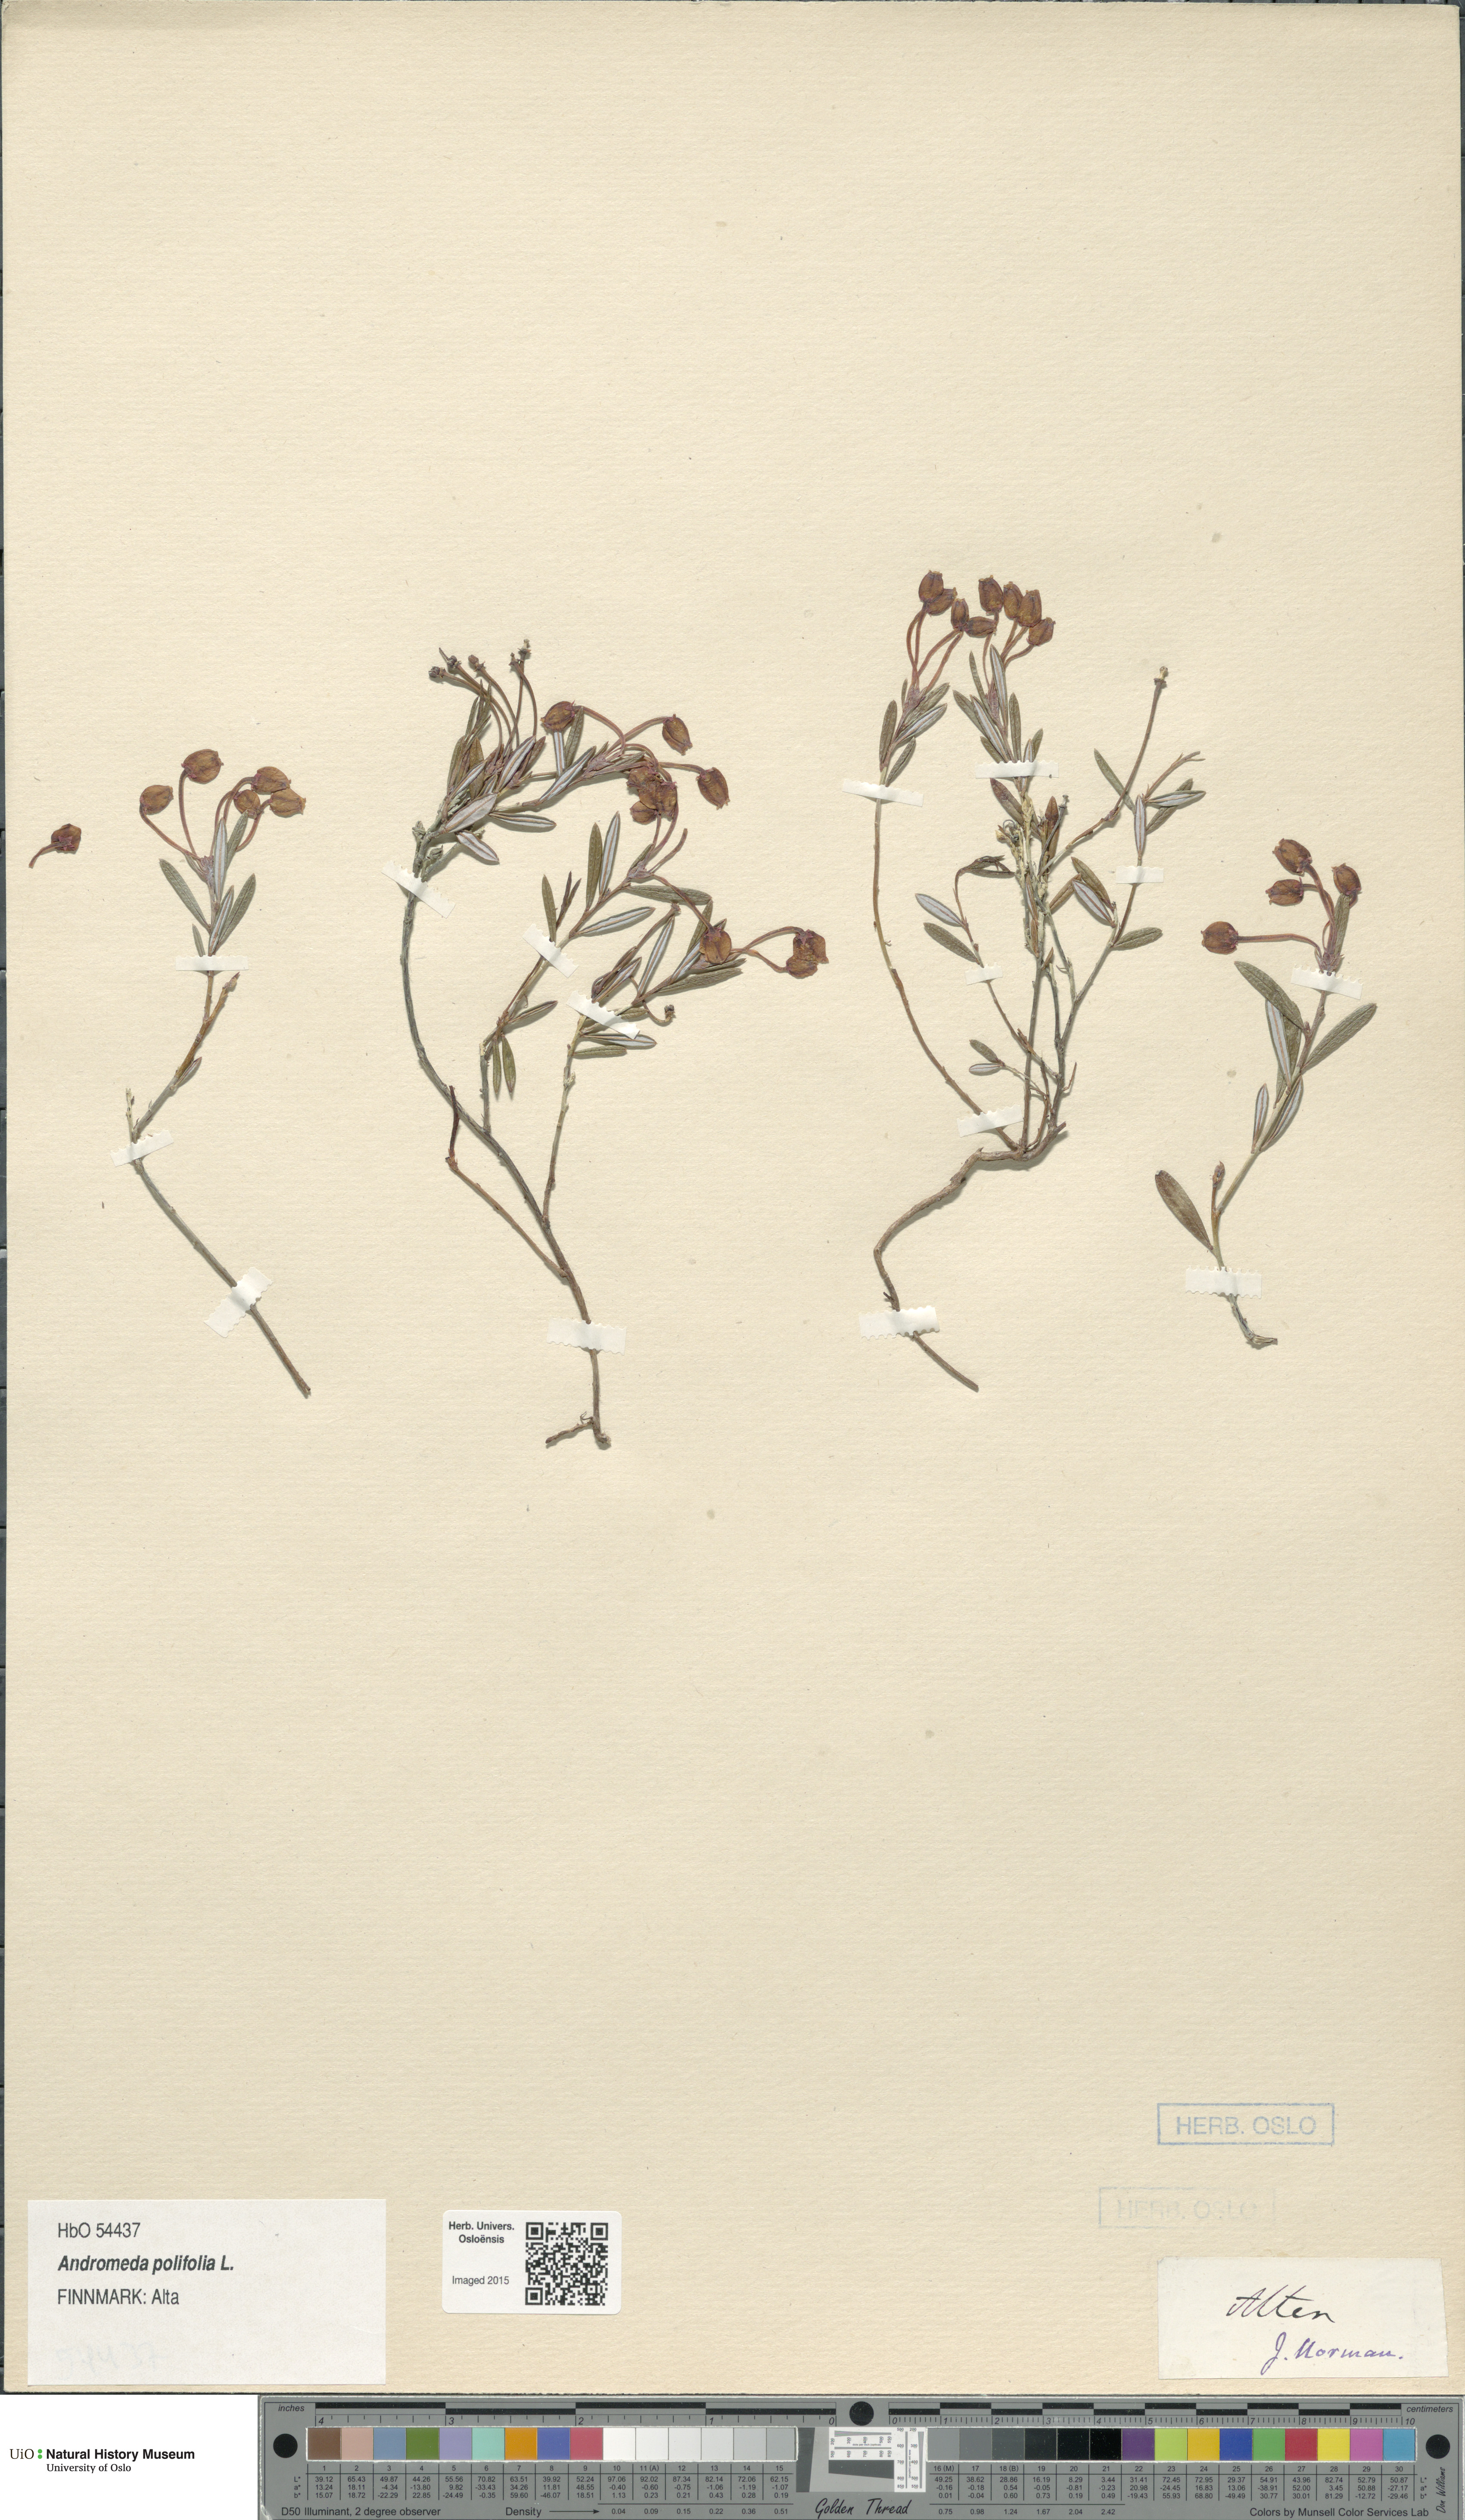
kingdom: Plantae
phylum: Tracheophyta
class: Magnoliopsida
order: Ericales
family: Ericaceae
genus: Andromeda
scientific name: Andromeda polifolia
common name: Bog-rosemary
